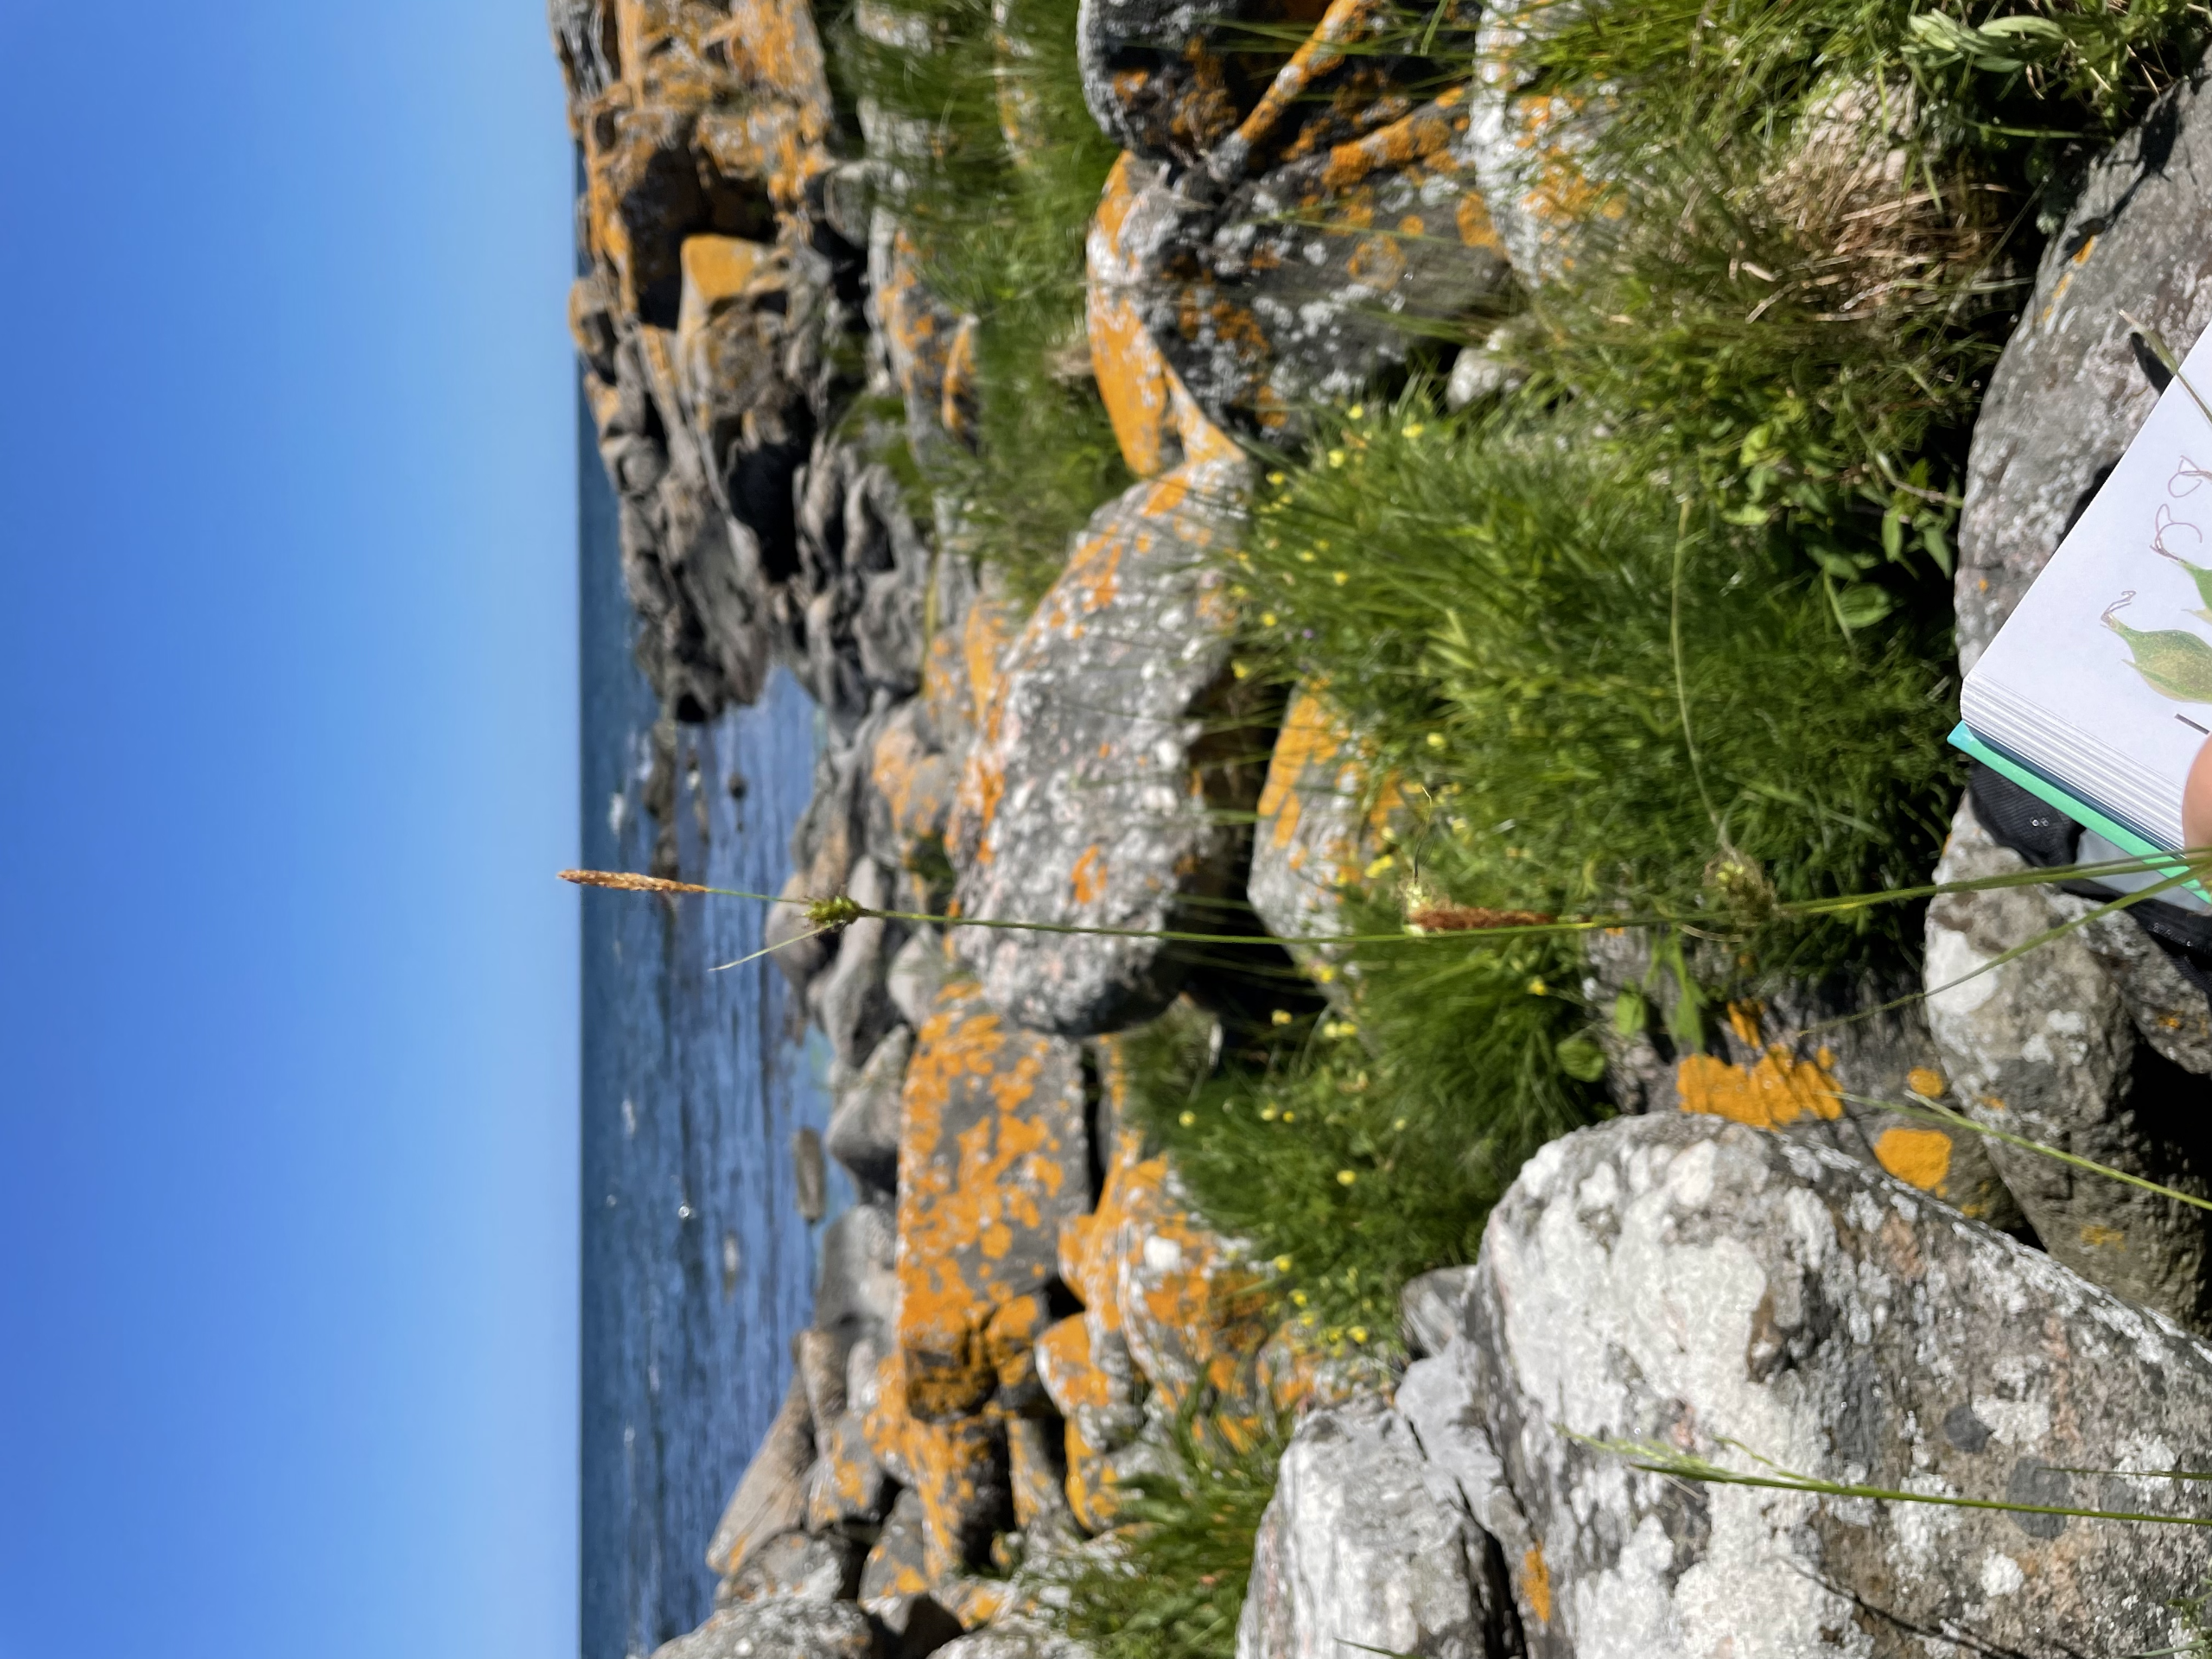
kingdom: Plantae
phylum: Tracheophyta
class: Liliopsida
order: Poales
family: Cyperaceae
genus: Carex
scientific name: Carex distans
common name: Fjernakset star
